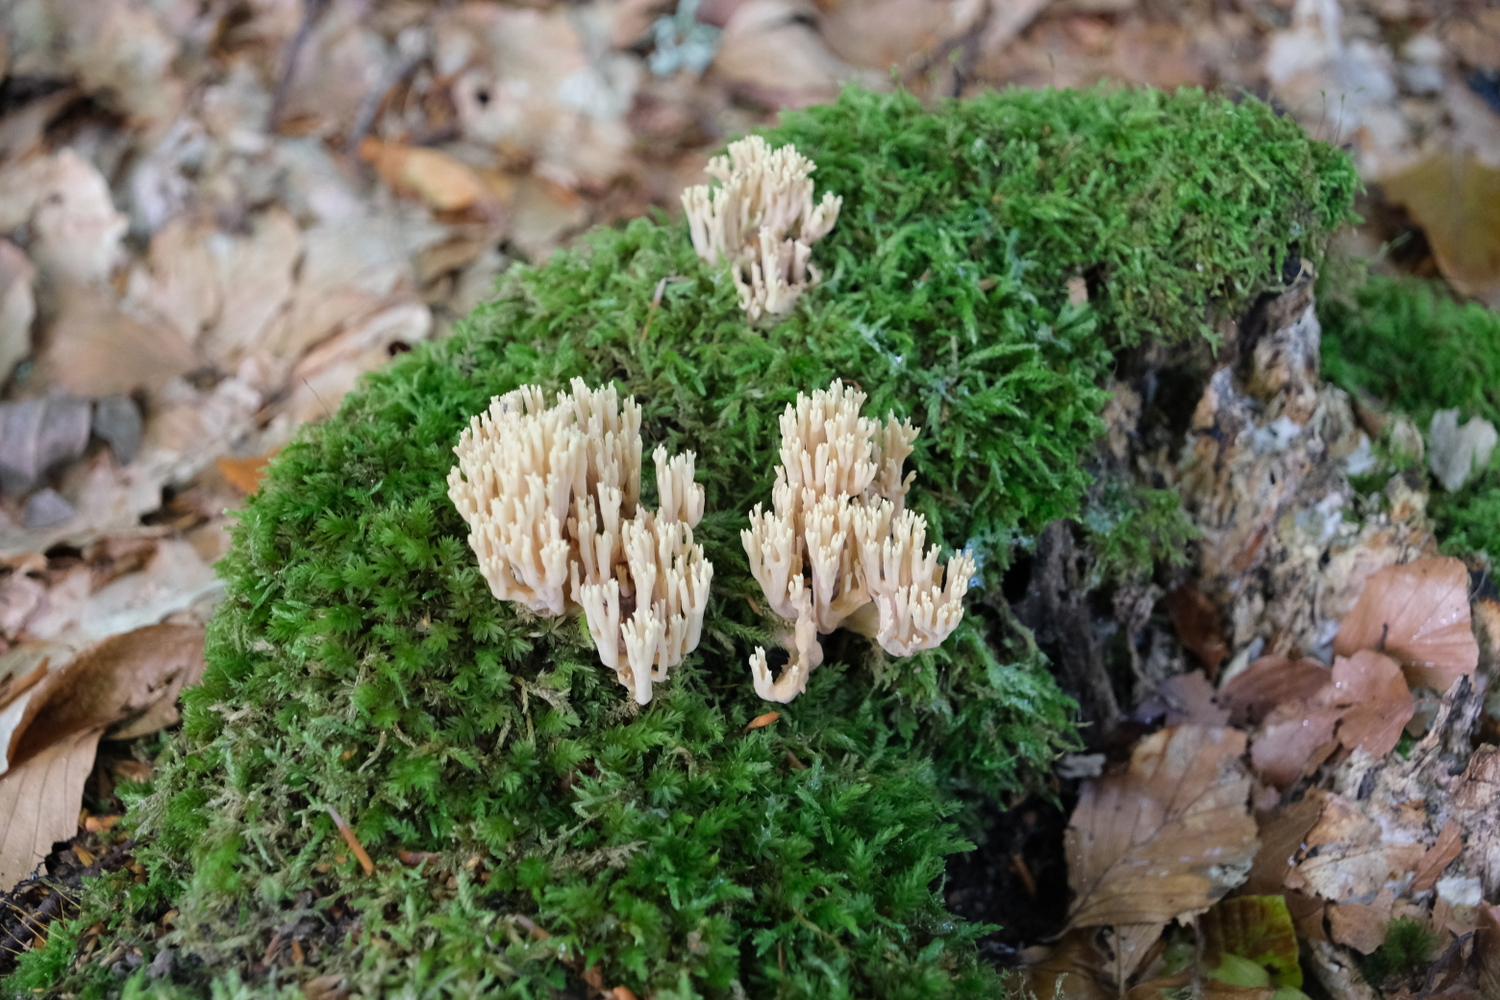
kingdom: Fungi
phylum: Basidiomycota
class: Agaricomycetes
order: Gomphales
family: Gomphaceae
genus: Ramaria
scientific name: Ramaria stricta
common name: rank koralsvamp
